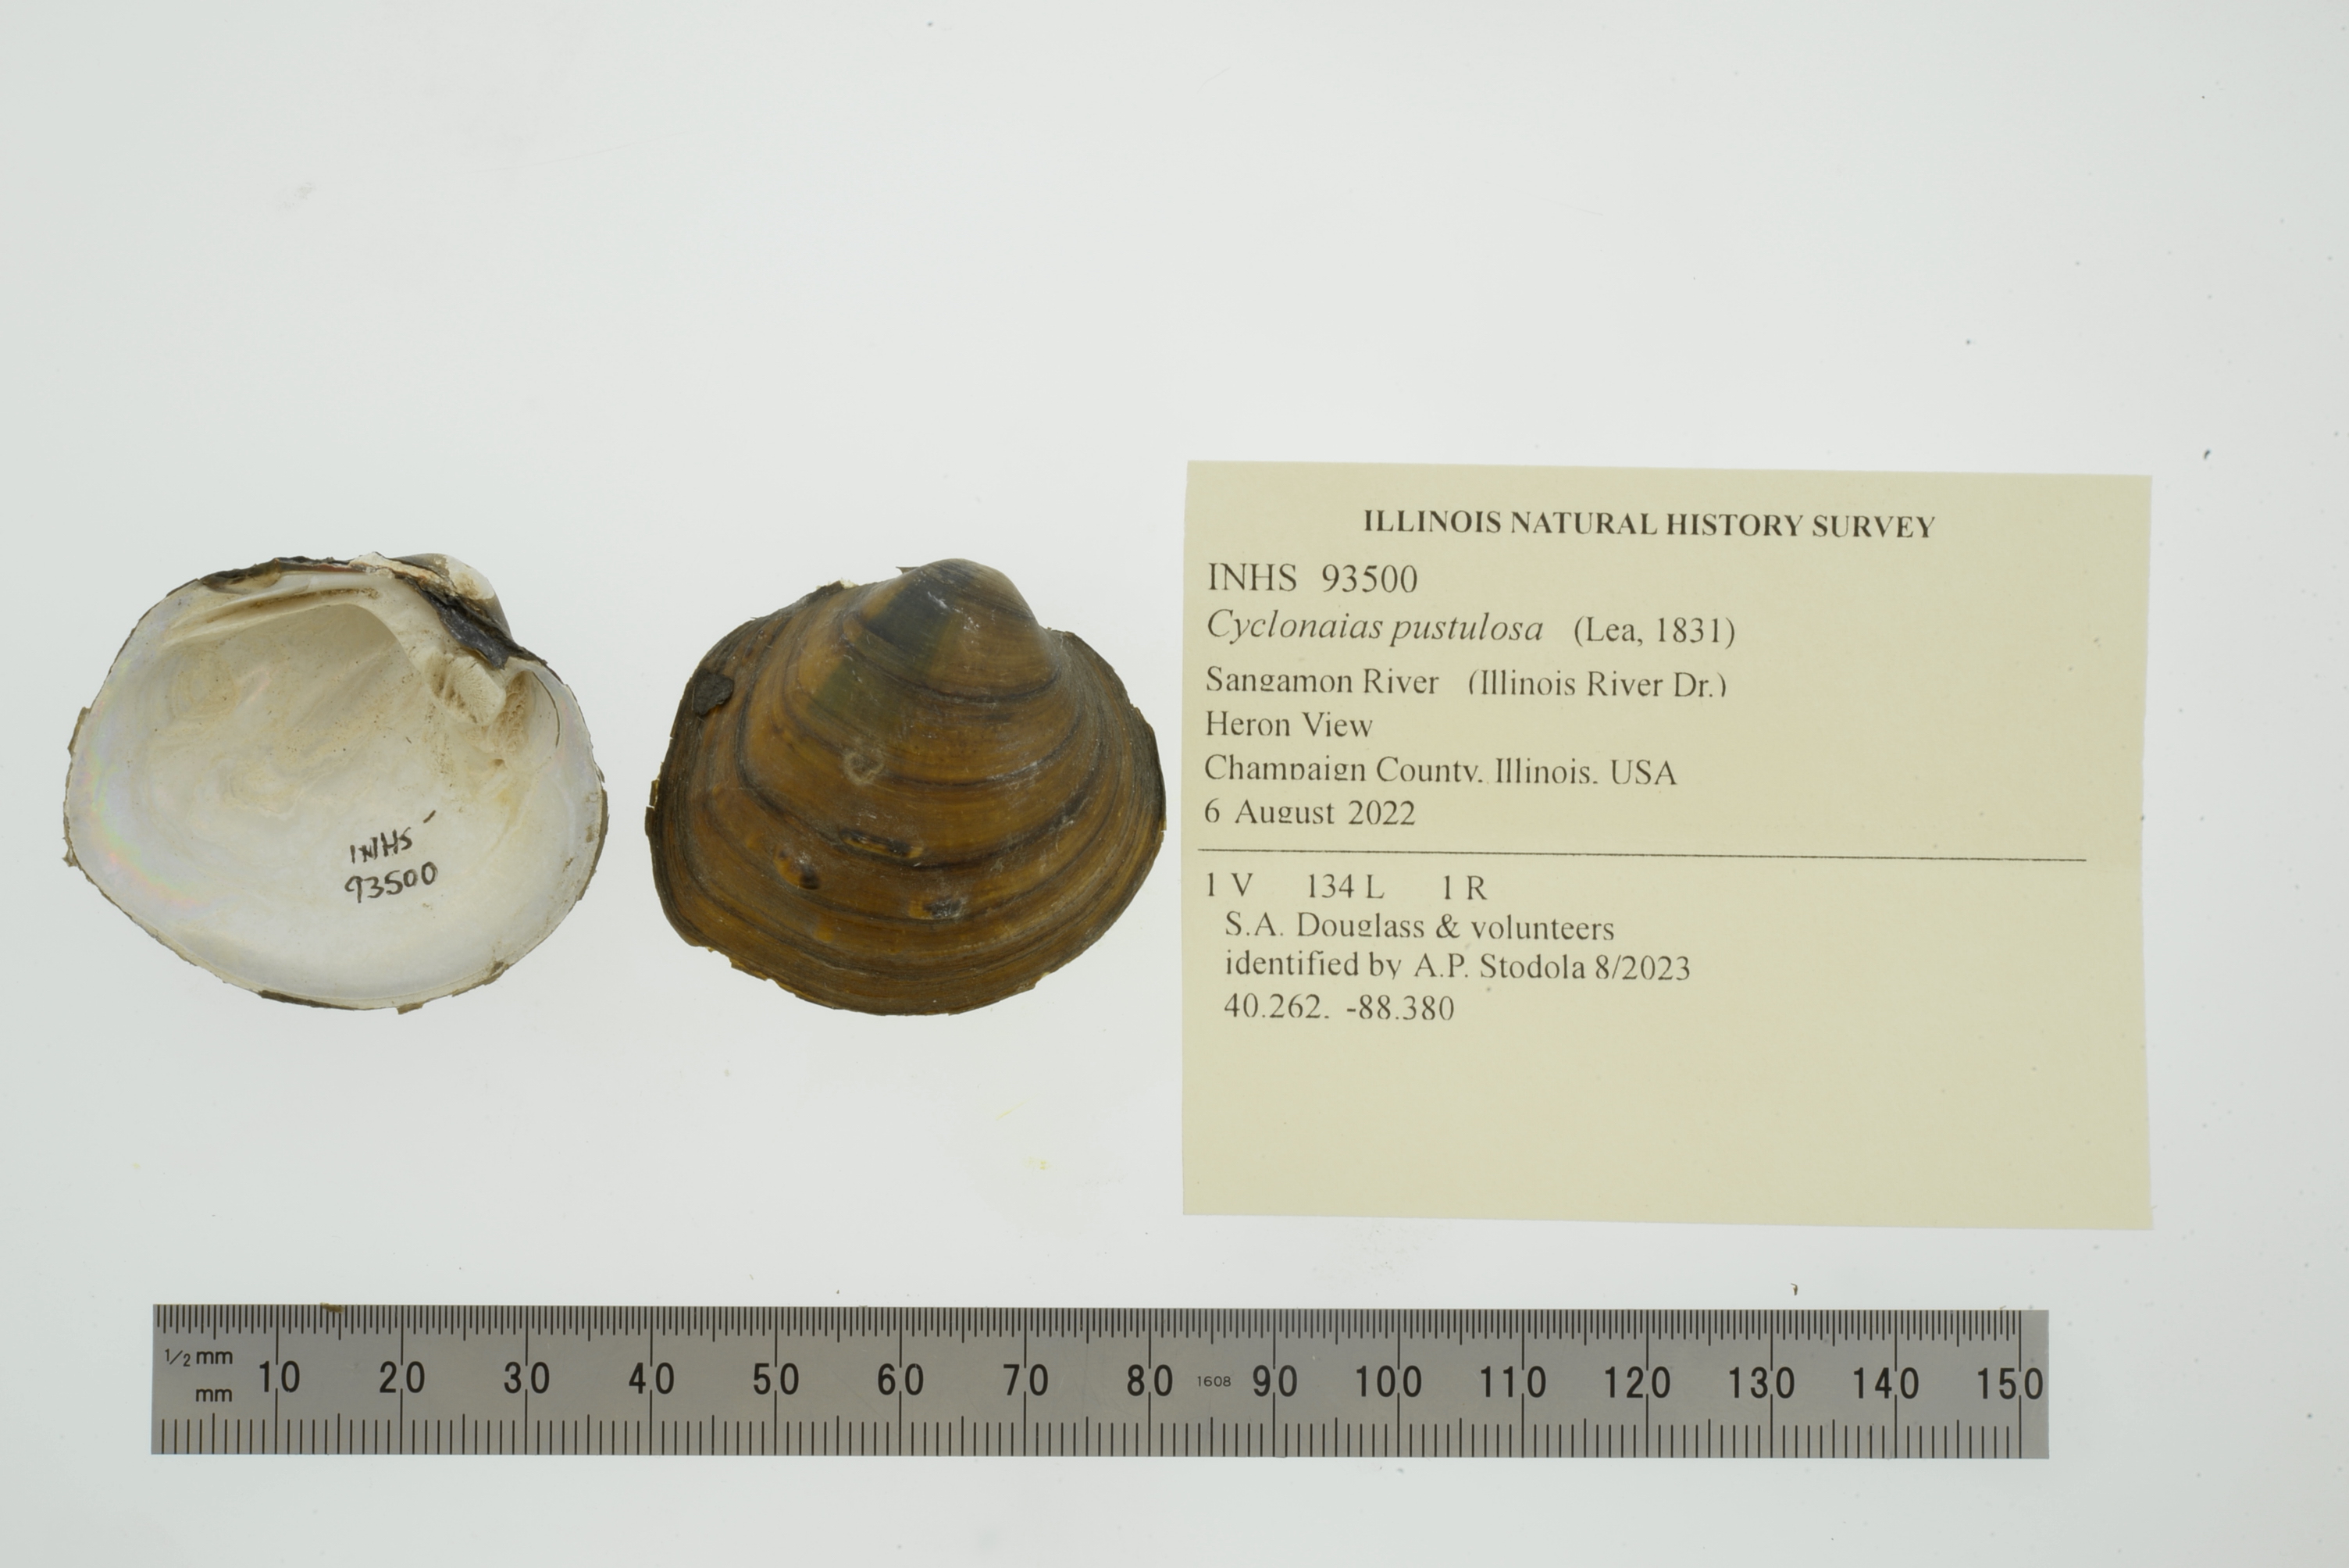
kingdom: Animalia
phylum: Mollusca
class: Bivalvia
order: Unionida
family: Unionidae
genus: Cyclonaias
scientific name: Cyclonaias pustulosa
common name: Pimpleback
